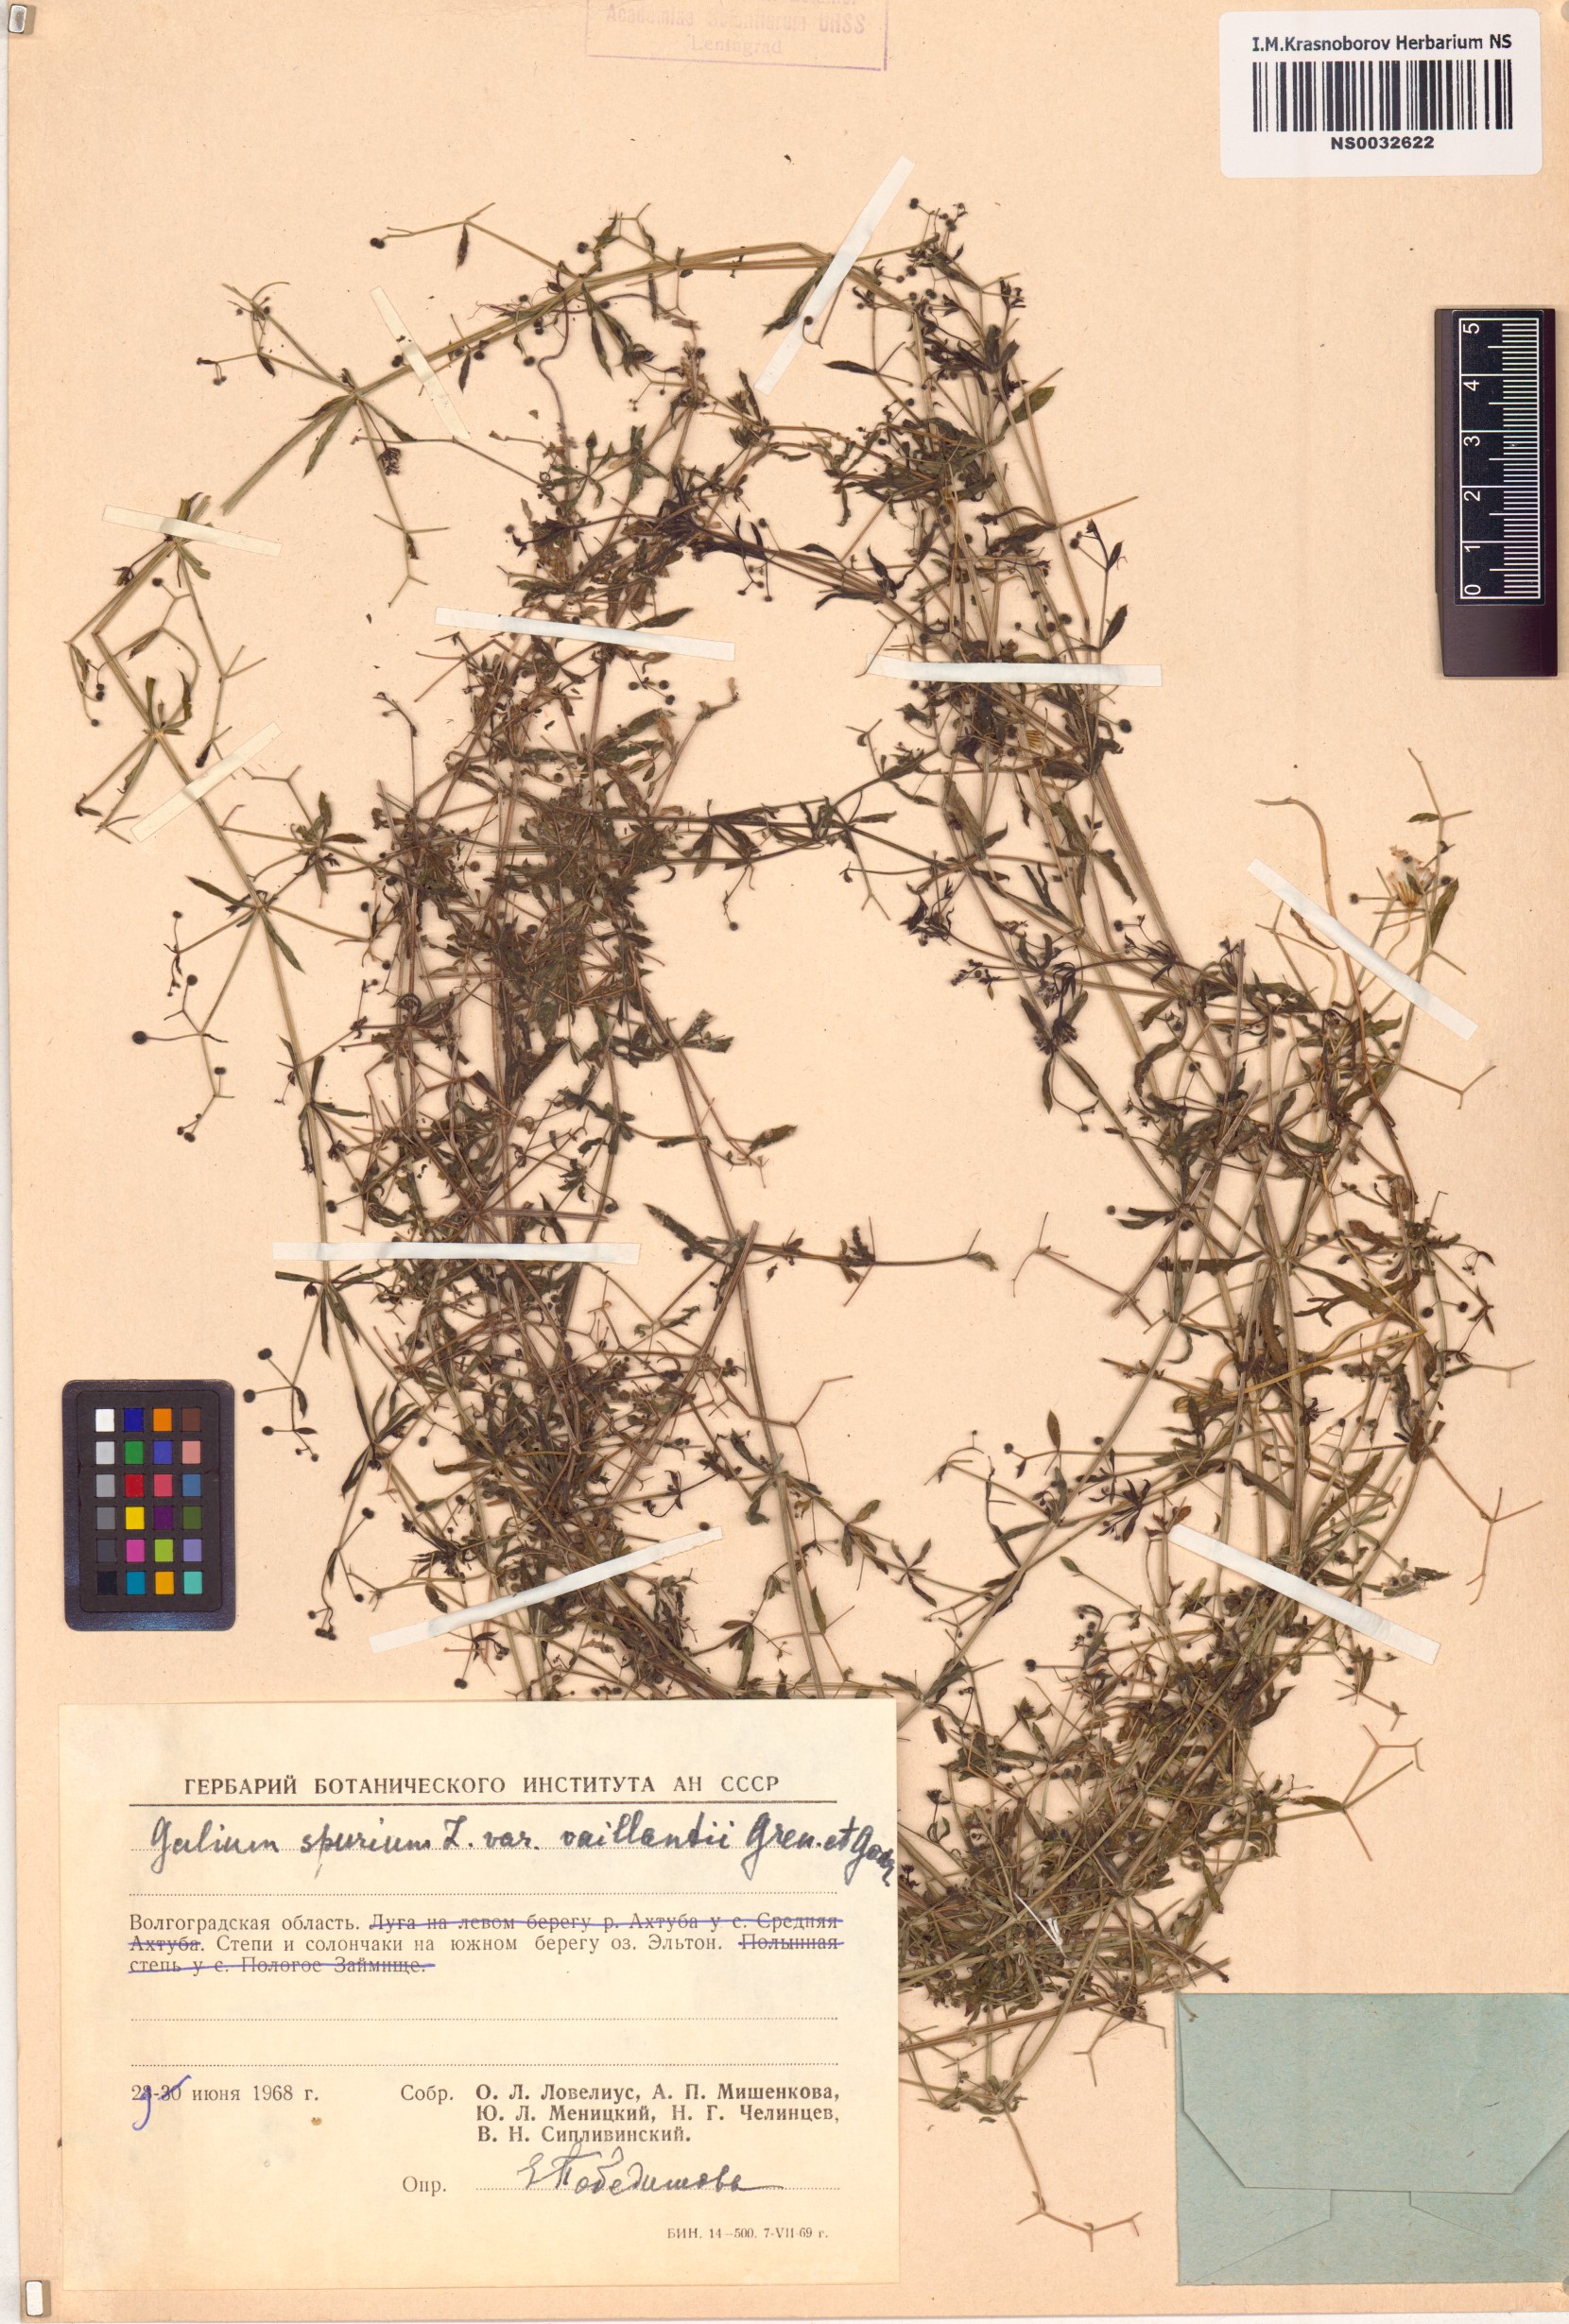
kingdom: Plantae
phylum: Tracheophyta
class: Magnoliopsida
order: Gentianales
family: Rubiaceae
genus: Galium
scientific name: Galium spurium
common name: False cleavers
